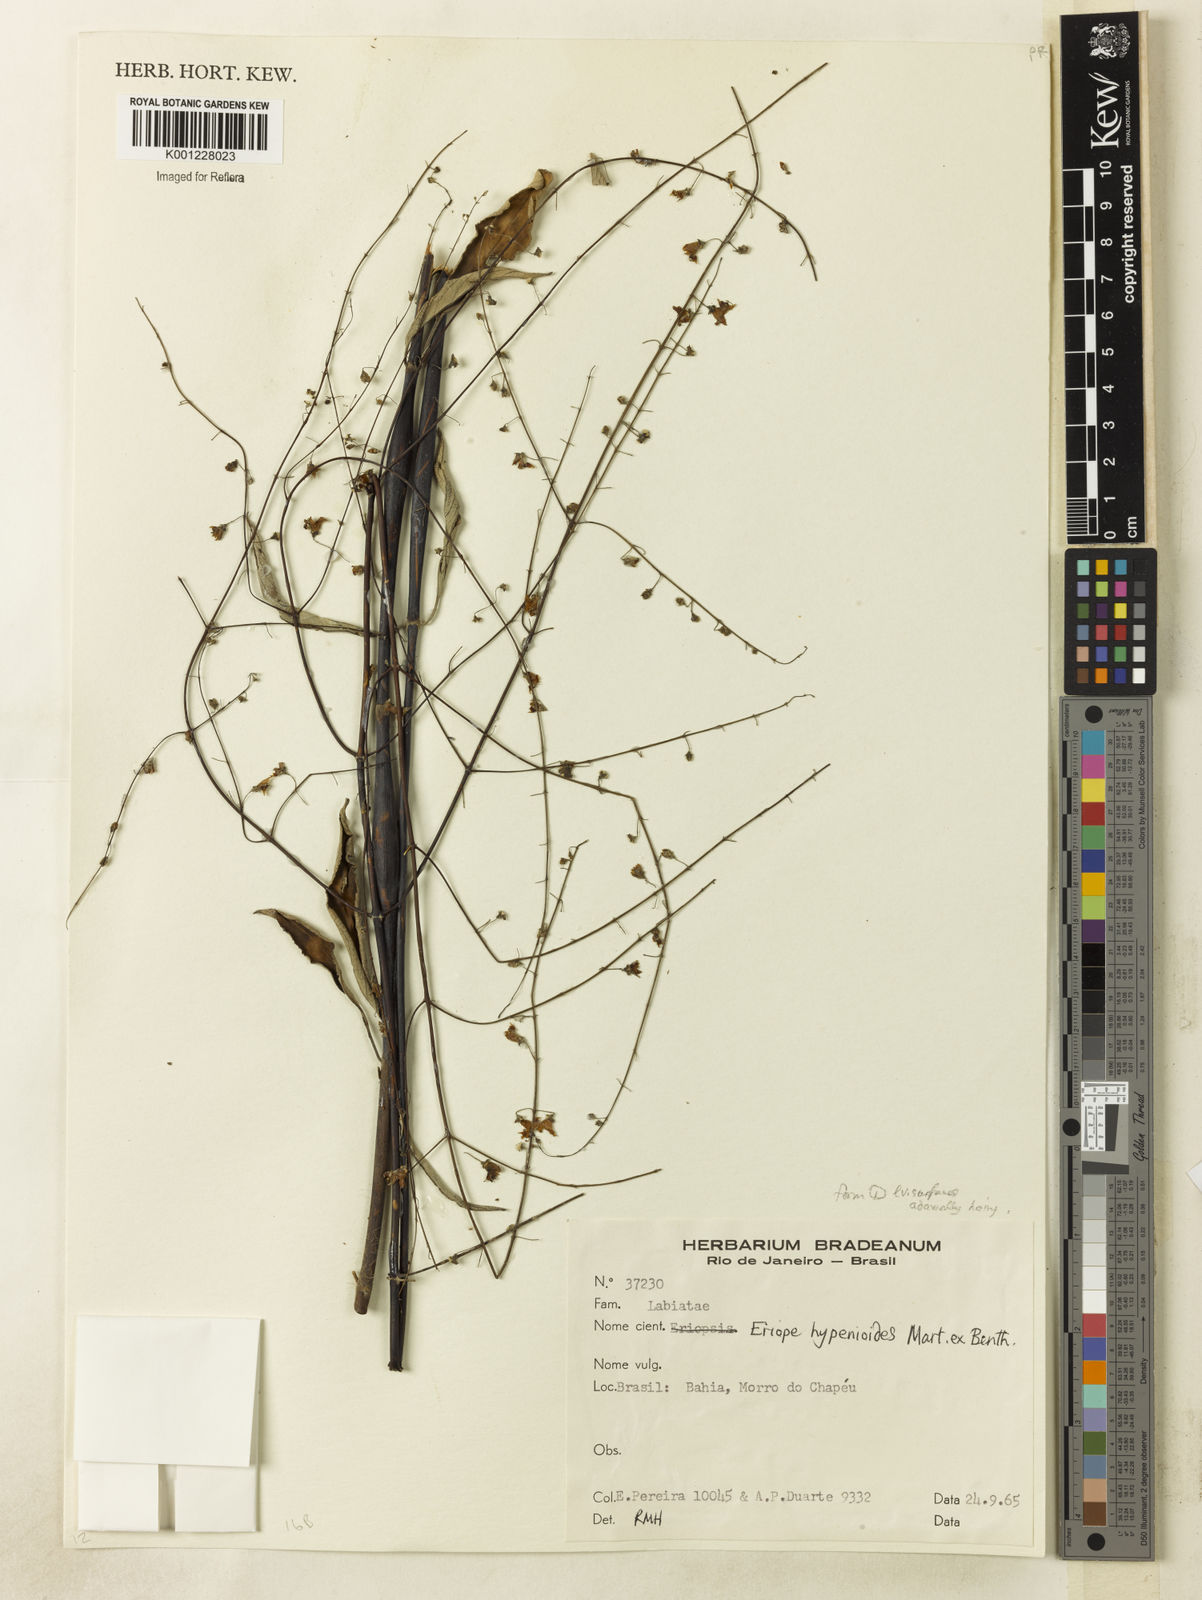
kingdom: Plantae
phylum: Tracheophyta
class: Magnoliopsida
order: Lamiales
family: Lamiaceae
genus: Eriope
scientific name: Eriope hypenioides
